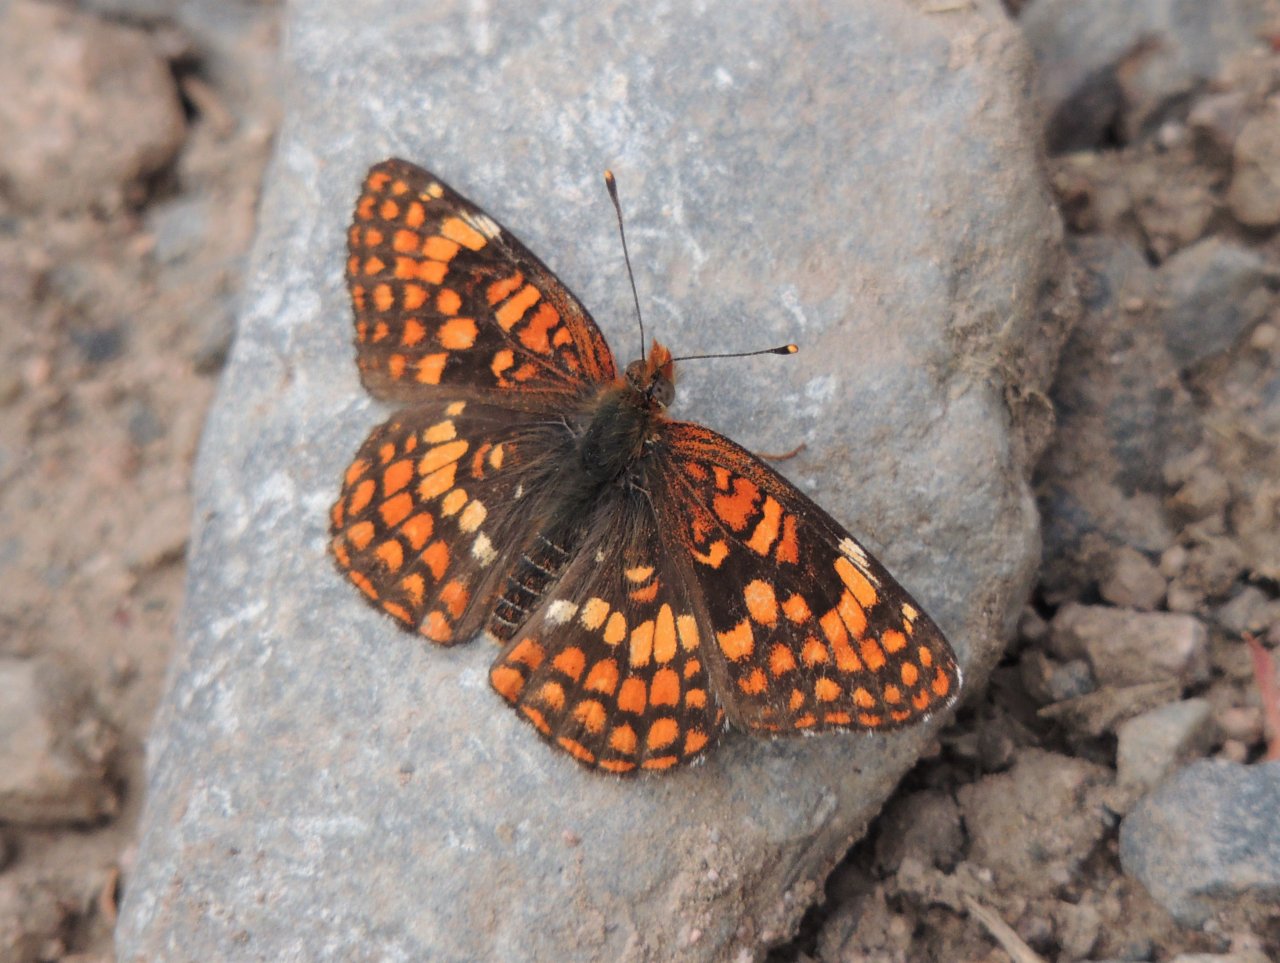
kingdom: Animalia
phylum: Arthropoda
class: Insecta
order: Lepidoptera
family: Nymphalidae
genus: Chlosyne
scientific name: Chlosyne palla
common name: Northern Checkerspot
